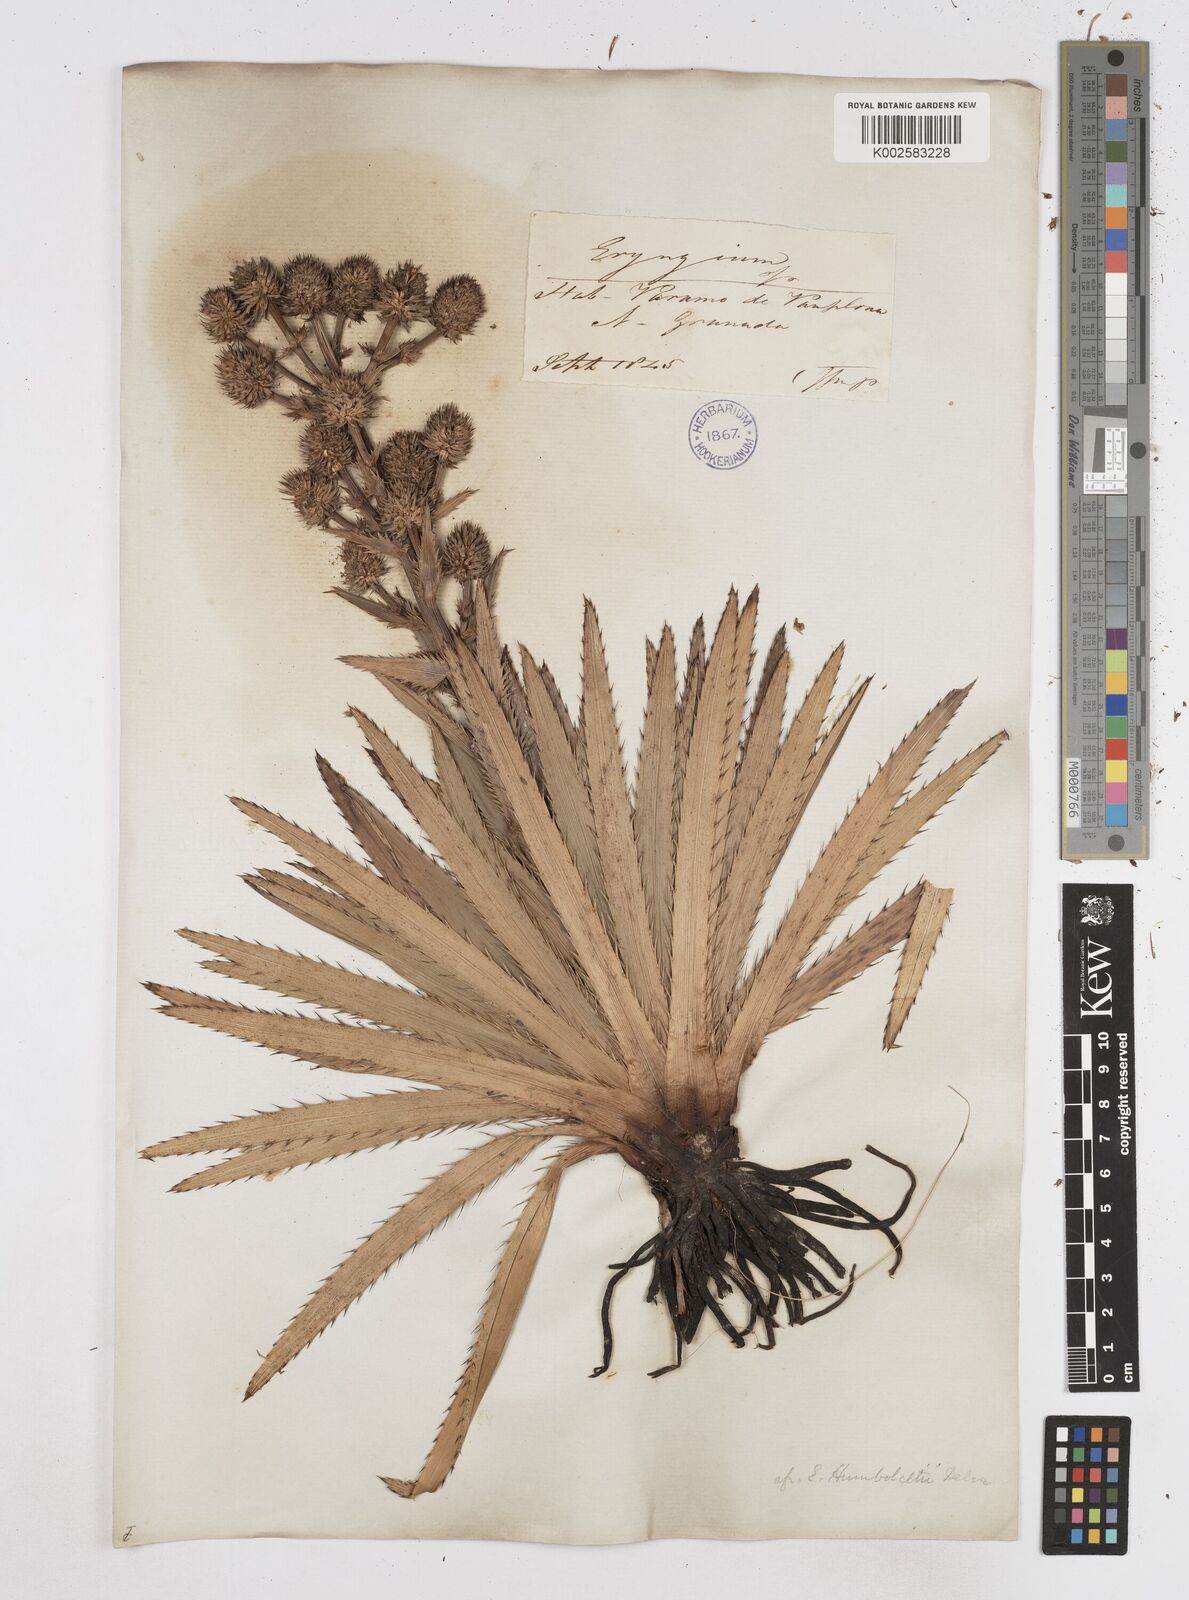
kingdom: Plantae
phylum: Tracheophyta
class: Magnoliopsida
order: Apiales
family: Apiaceae
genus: Eryngium
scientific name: Eryngium humboldtii
